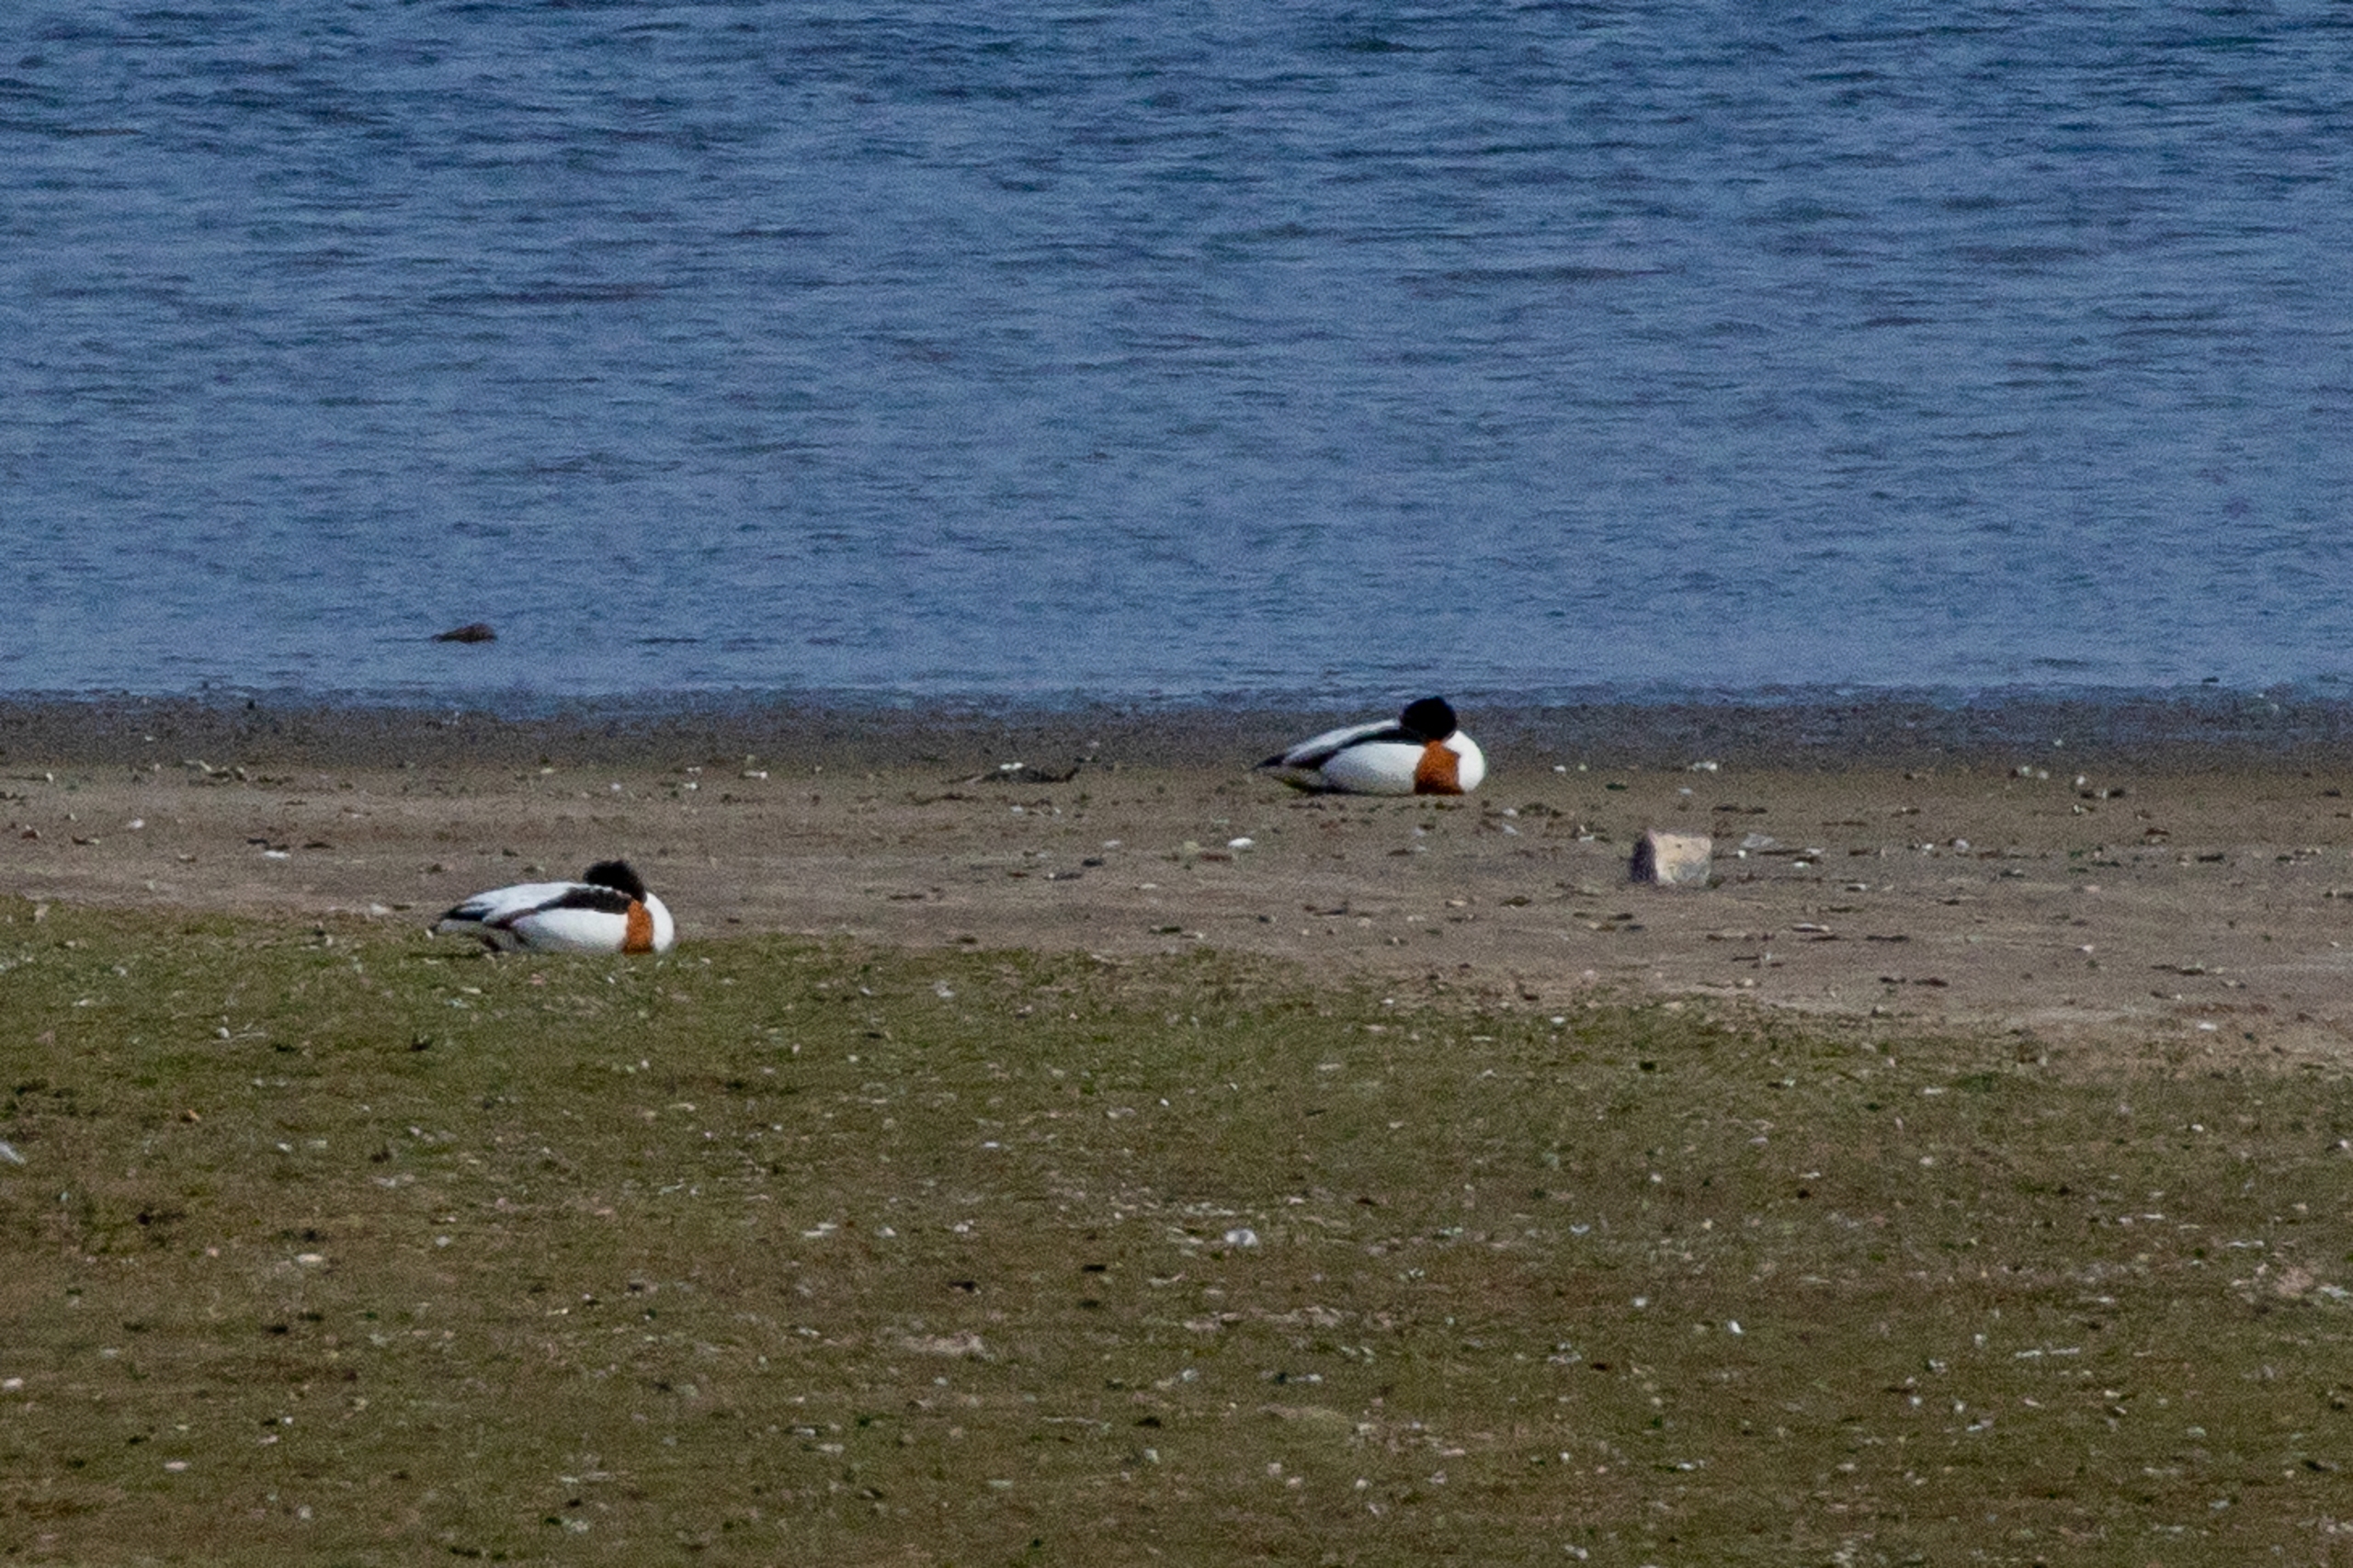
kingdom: Animalia
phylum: Chordata
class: Aves
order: Anseriformes
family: Anatidae
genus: Tadorna
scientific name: Tadorna tadorna
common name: Gravand
